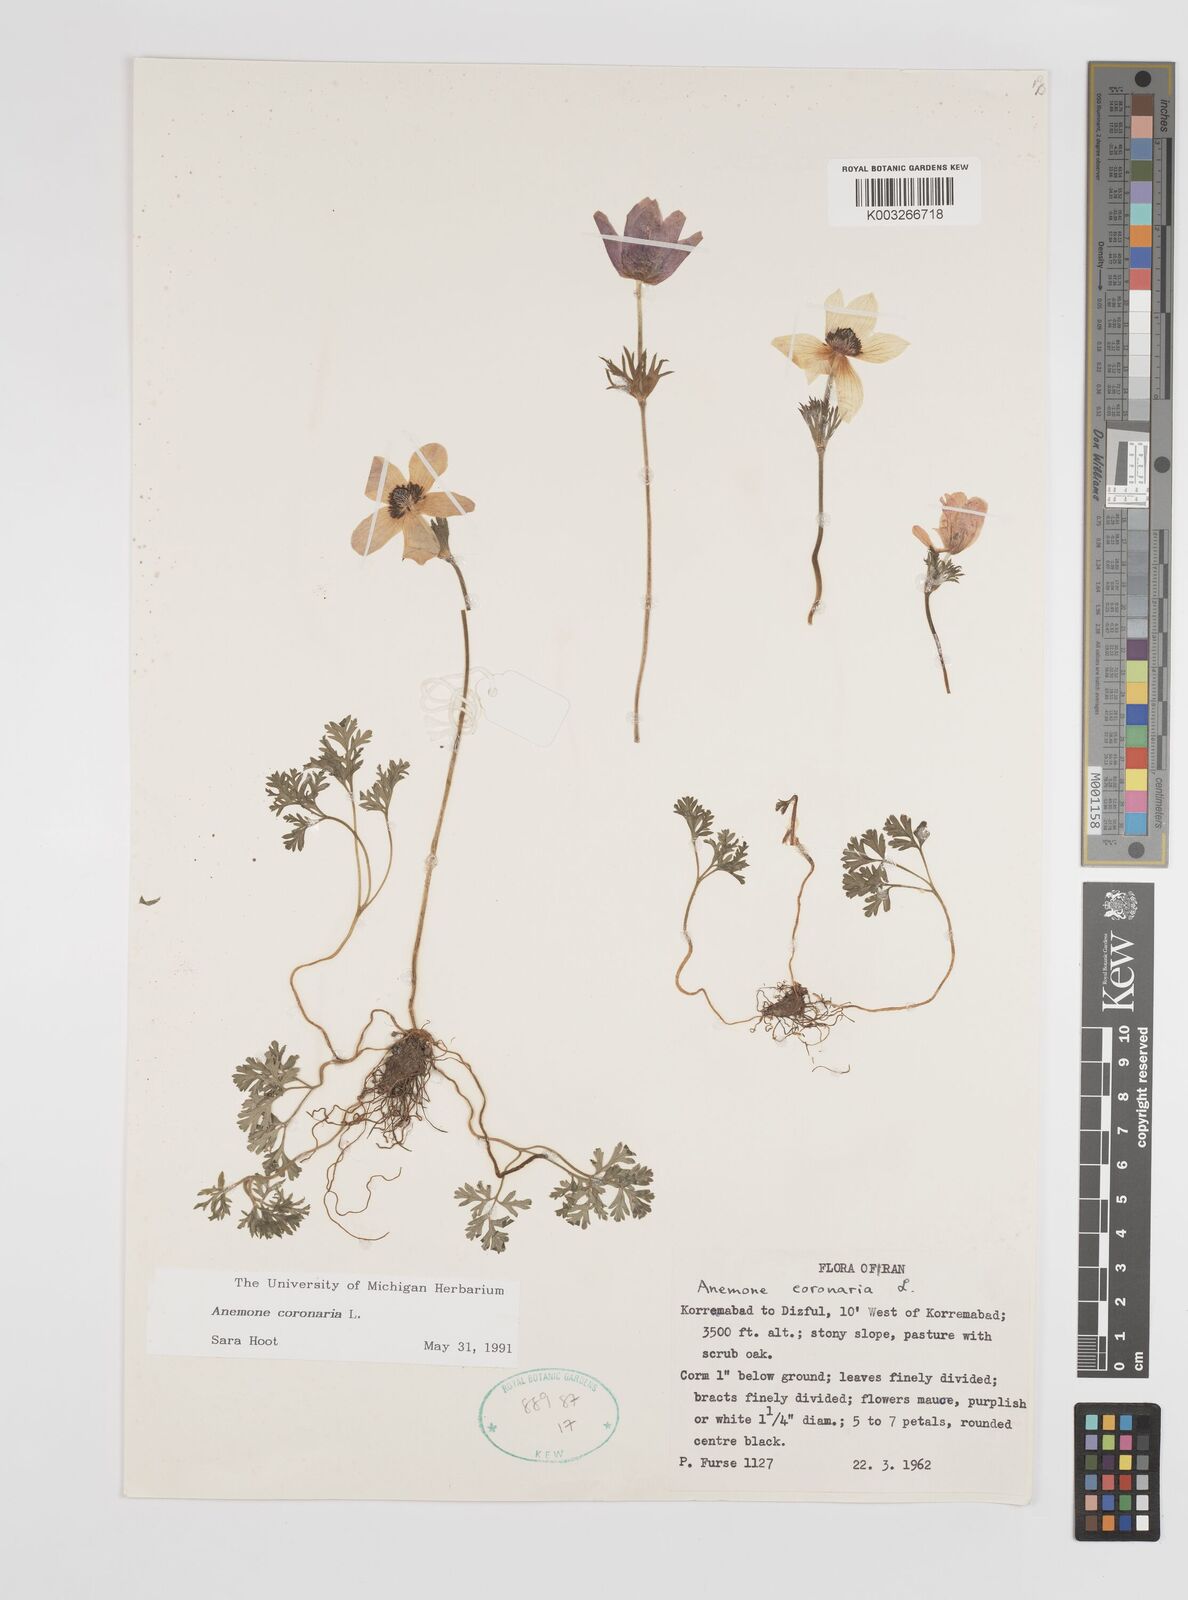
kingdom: Plantae
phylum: Tracheophyta
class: Magnoliopsida
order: Ranunculales
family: Ranunculaceae
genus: Anemone
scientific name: Anemone coronaria
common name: Poppy anemone
